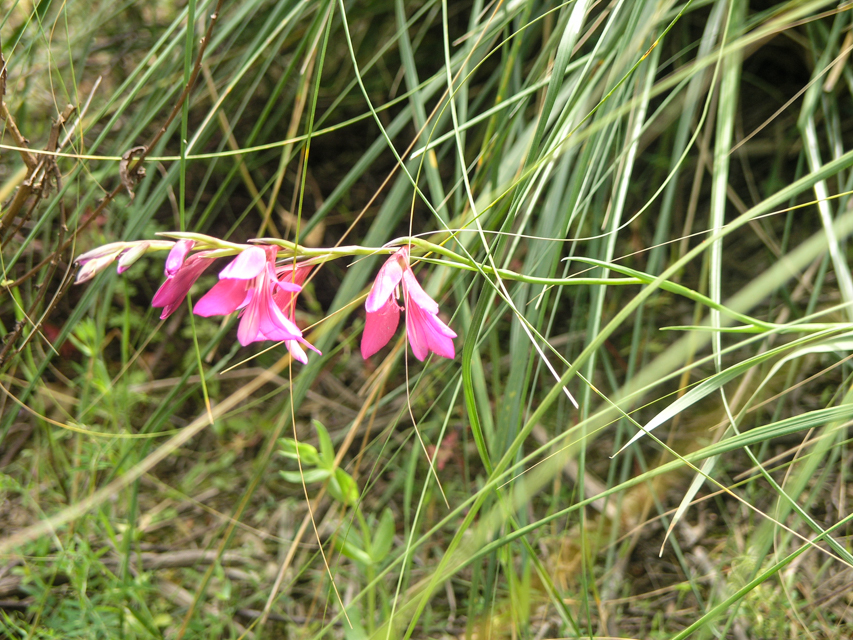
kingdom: Plantae
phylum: Tracheophyta
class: Liliopsida
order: Asparagales
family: Iridaceae
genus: Gladiolus
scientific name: Gladiolus illyricus
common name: Wild gladiolus
